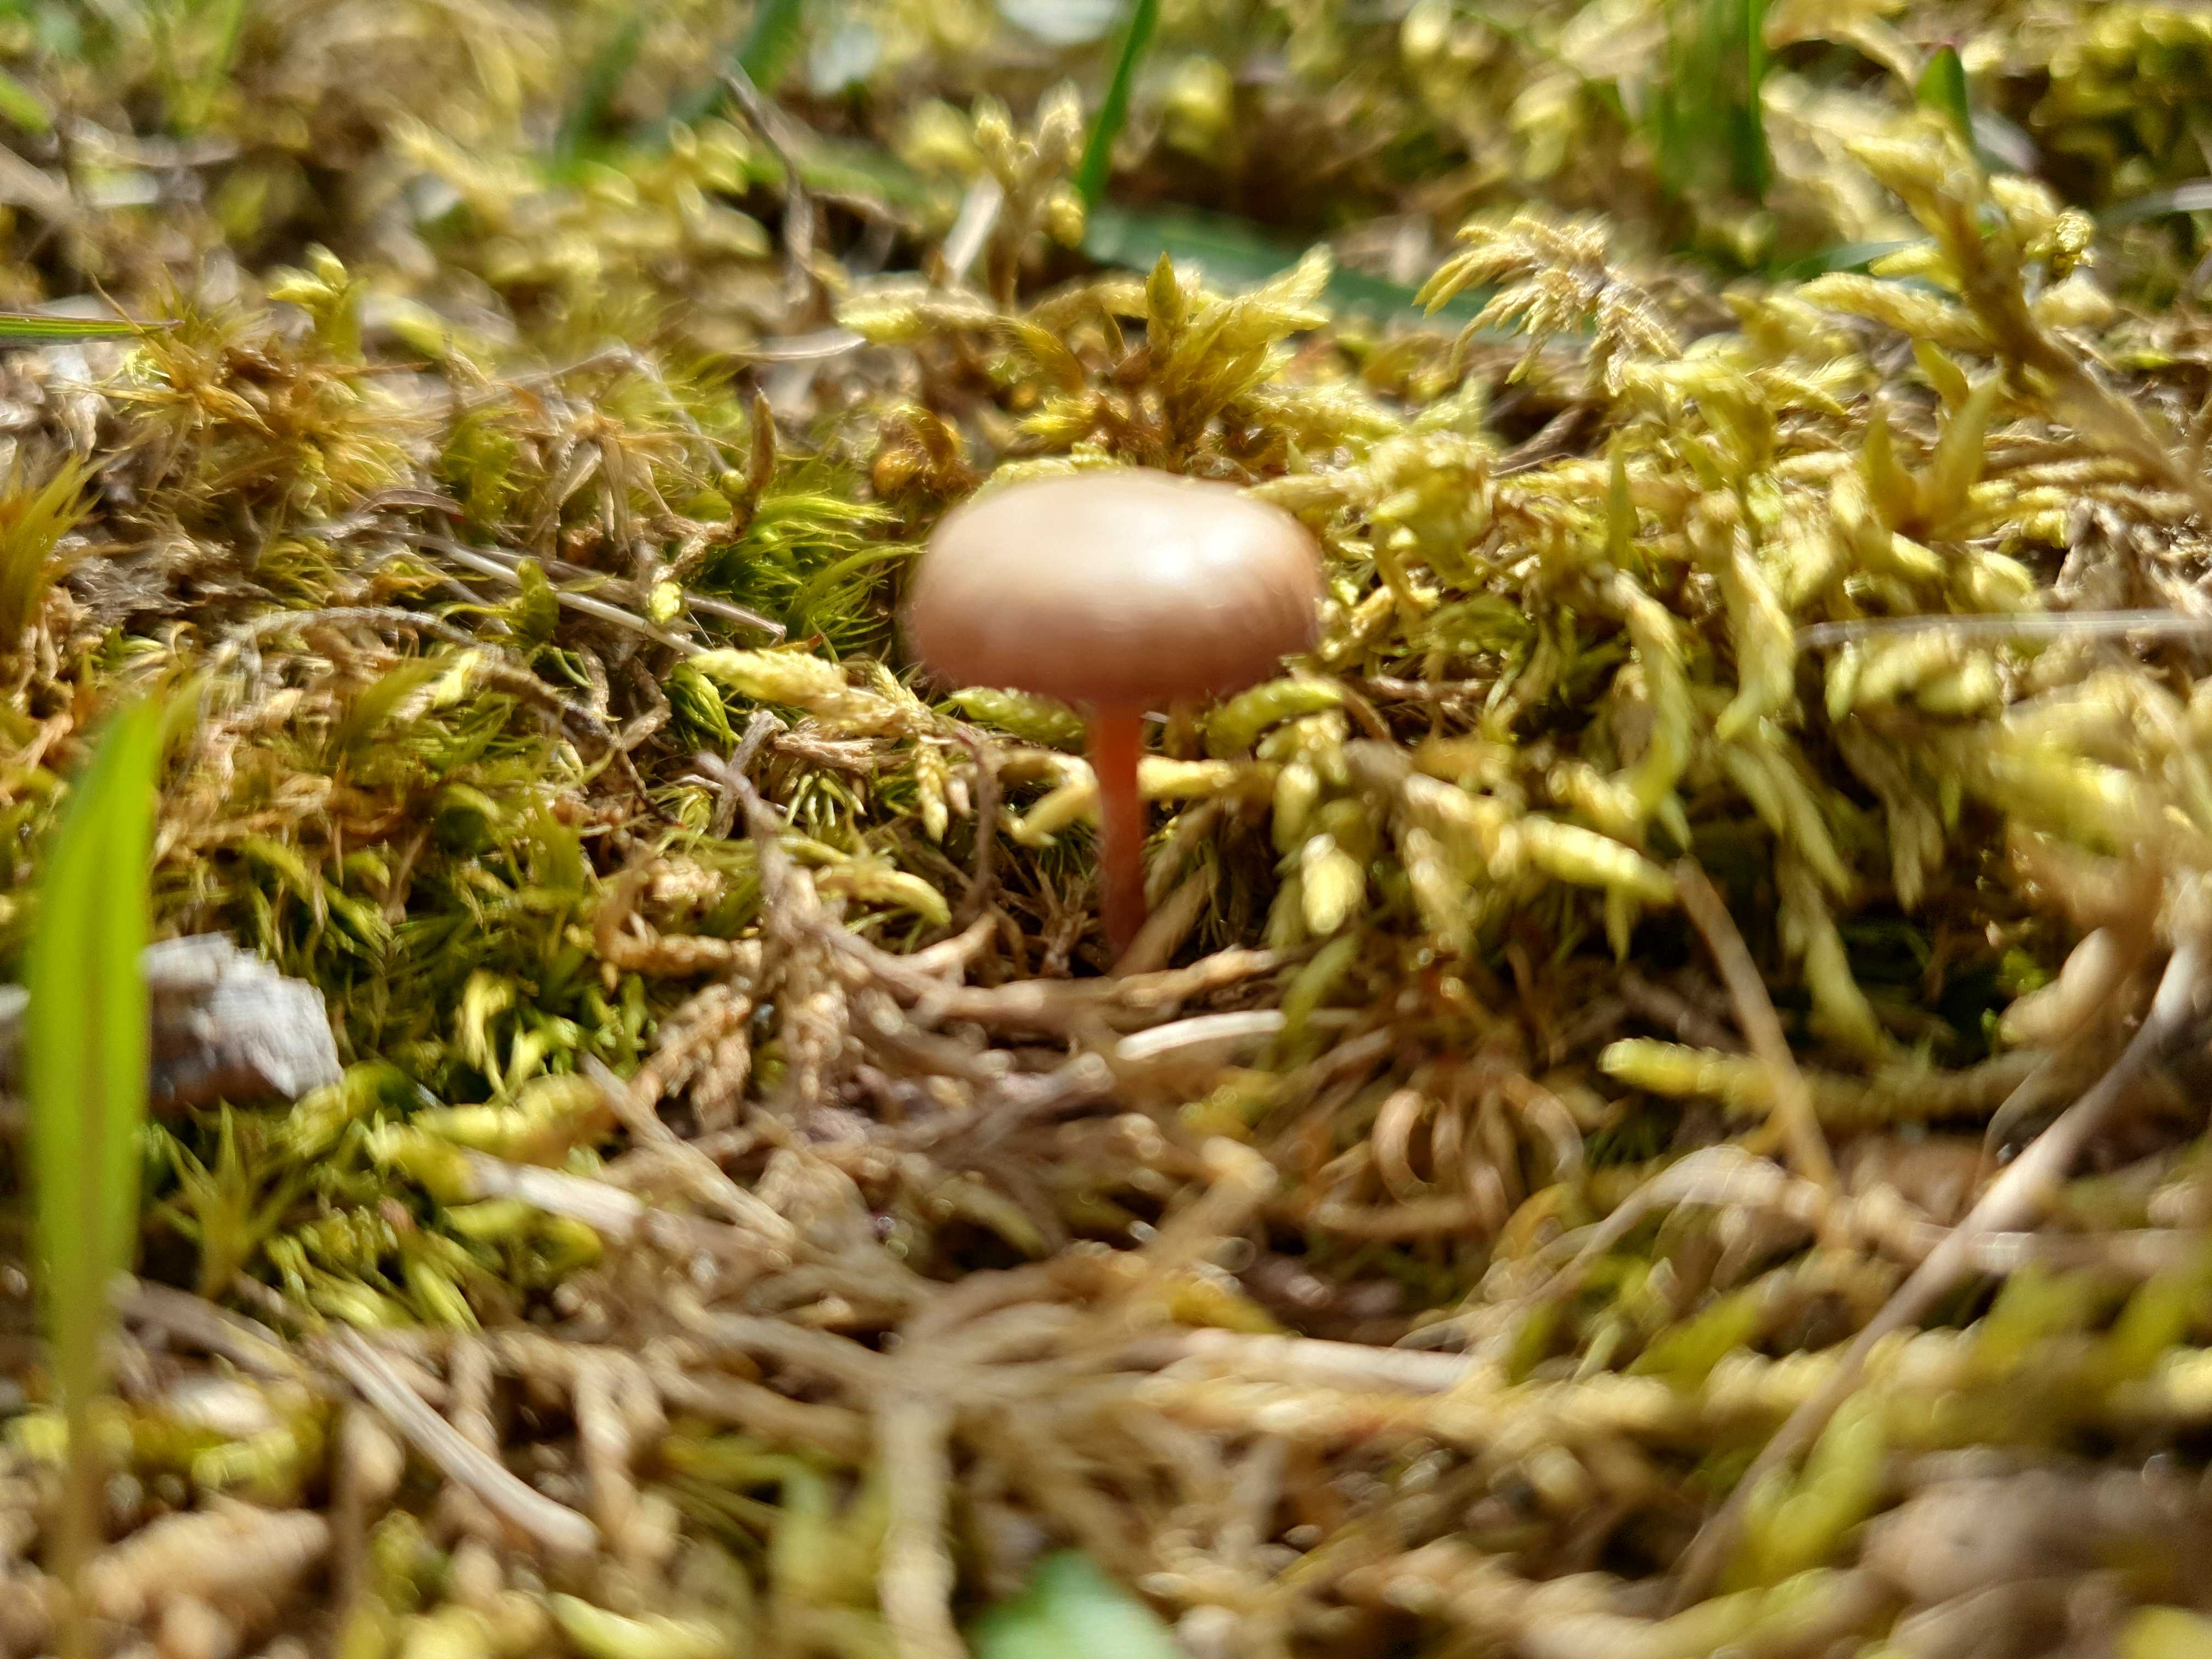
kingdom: Fungi
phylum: Basidiomycota
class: Agaricomycetes
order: Agaricales
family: Strophariaceae
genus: Deconica
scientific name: Deconica montana
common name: rødbrun stråhat
